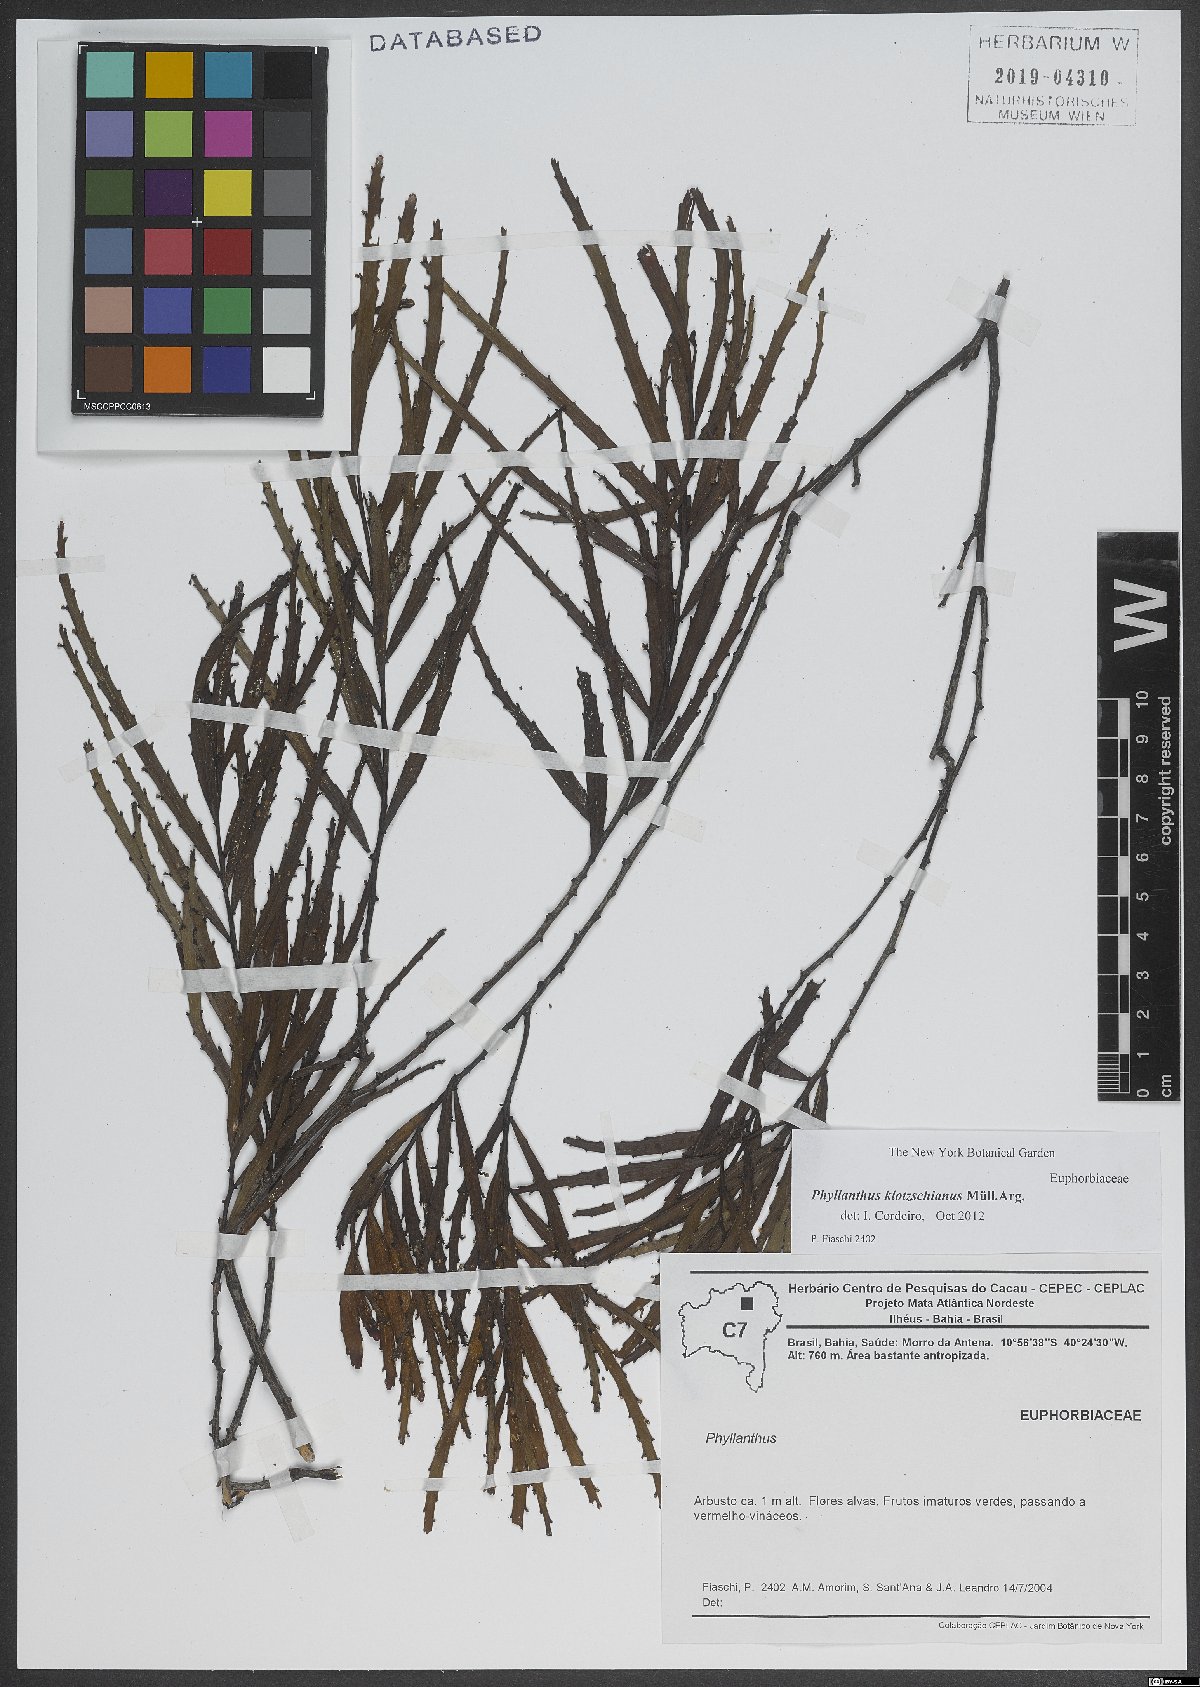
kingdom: Plantae
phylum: Tracheophyta
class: Magnoliopsida
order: Malpighiales
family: Phyllanthaceae
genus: Phyllanthus
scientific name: Phyllanthus robustus
